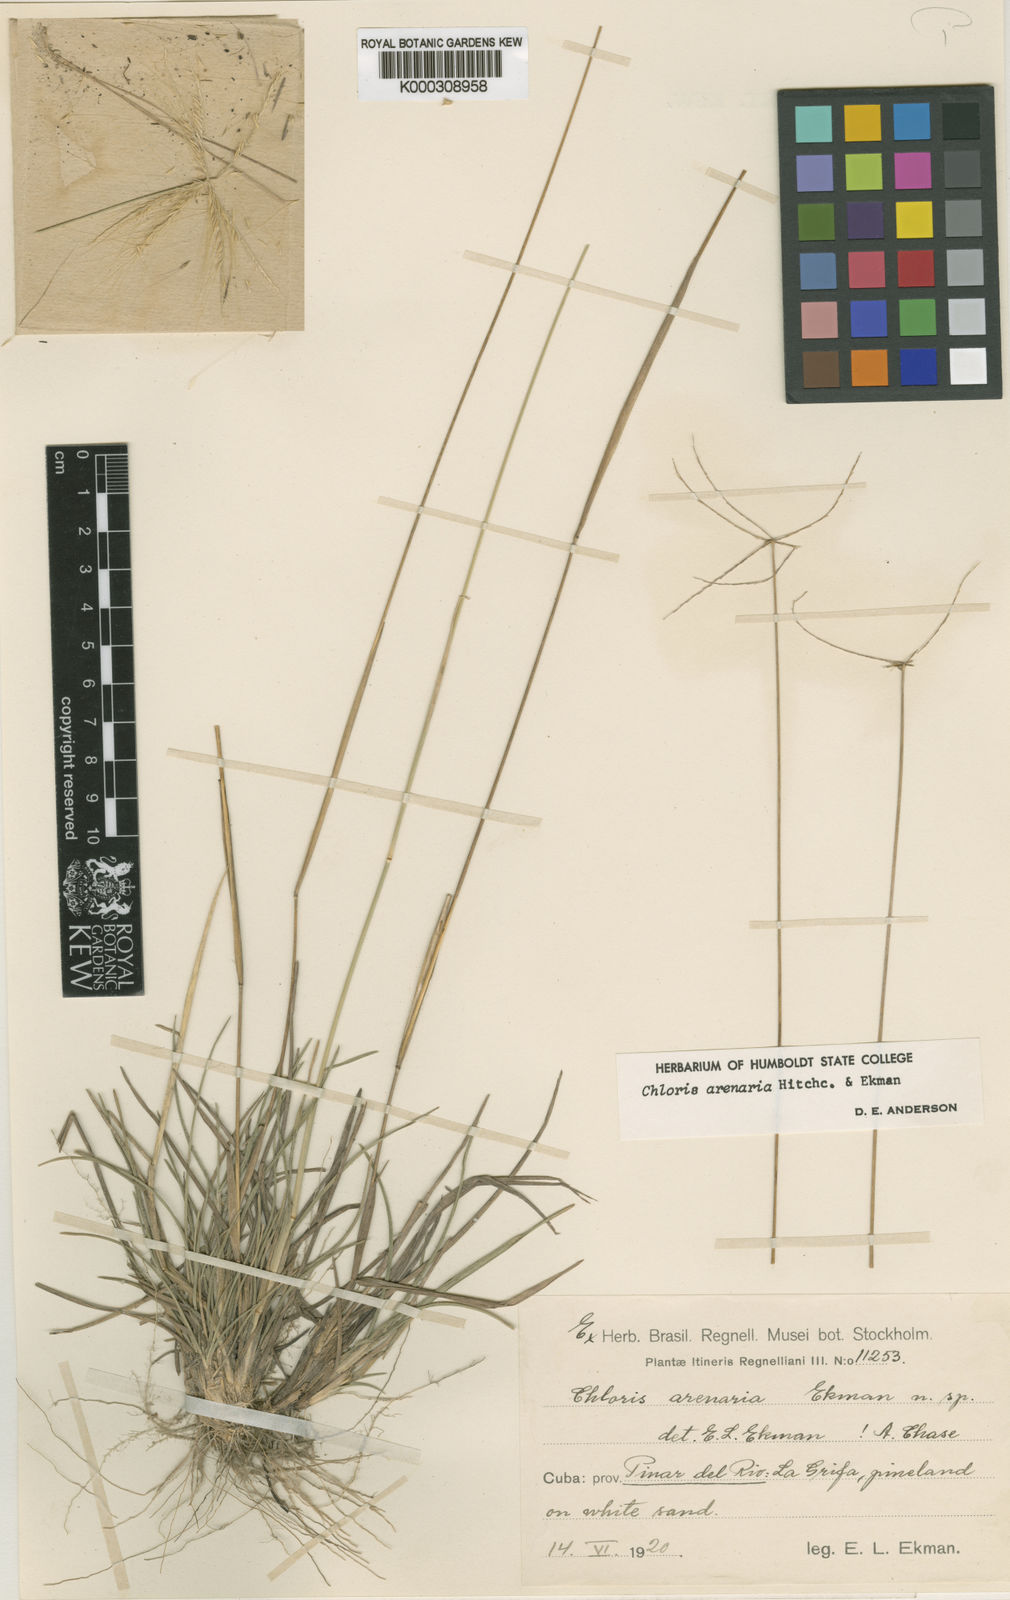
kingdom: Plantae
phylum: Tracheophyta
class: Liliopsida
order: Poales
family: Poaceae
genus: Chloris
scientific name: Chloris arenaria
